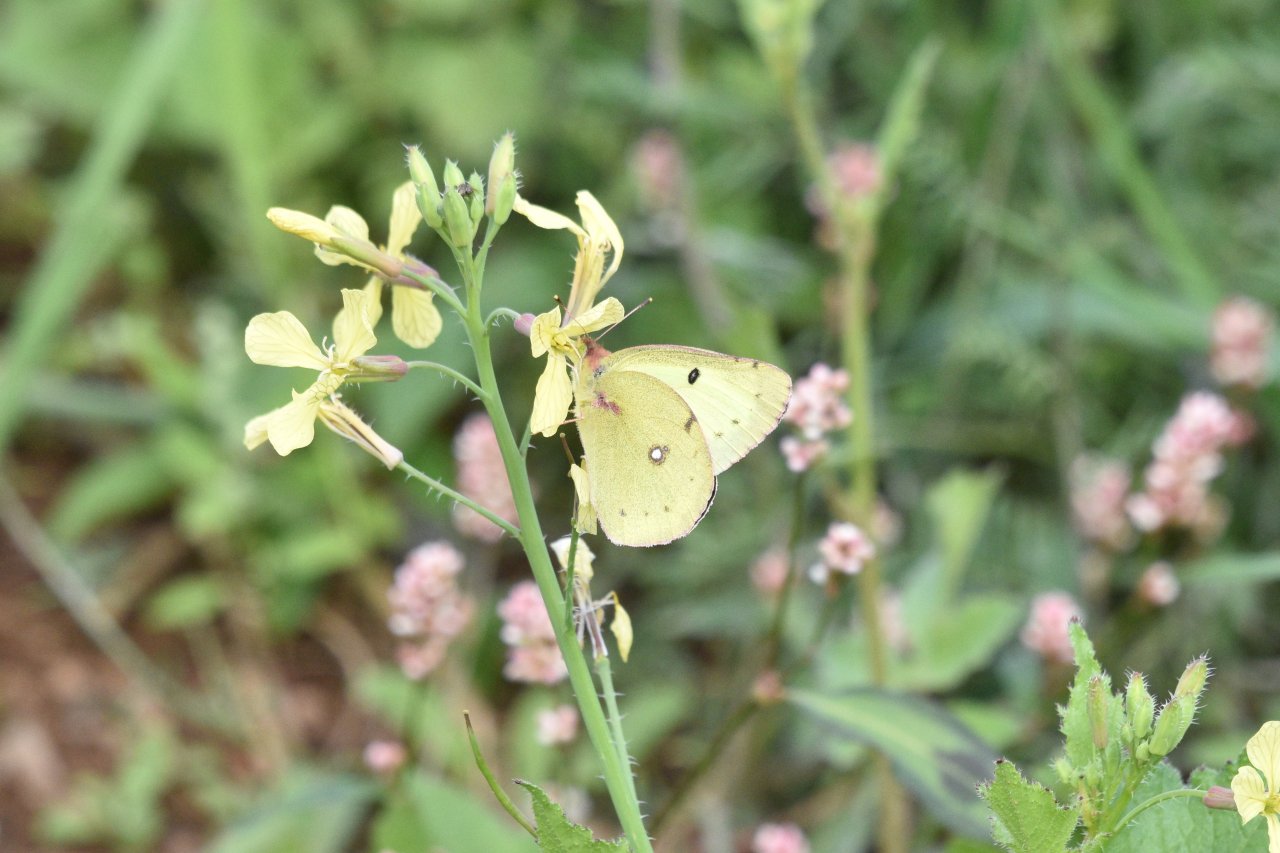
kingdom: Animalia
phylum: Arthropoda
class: Insecta
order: Lepidoptera
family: Pieridae
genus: Colias
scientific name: Colias philodice
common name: Clouded Sulphur
